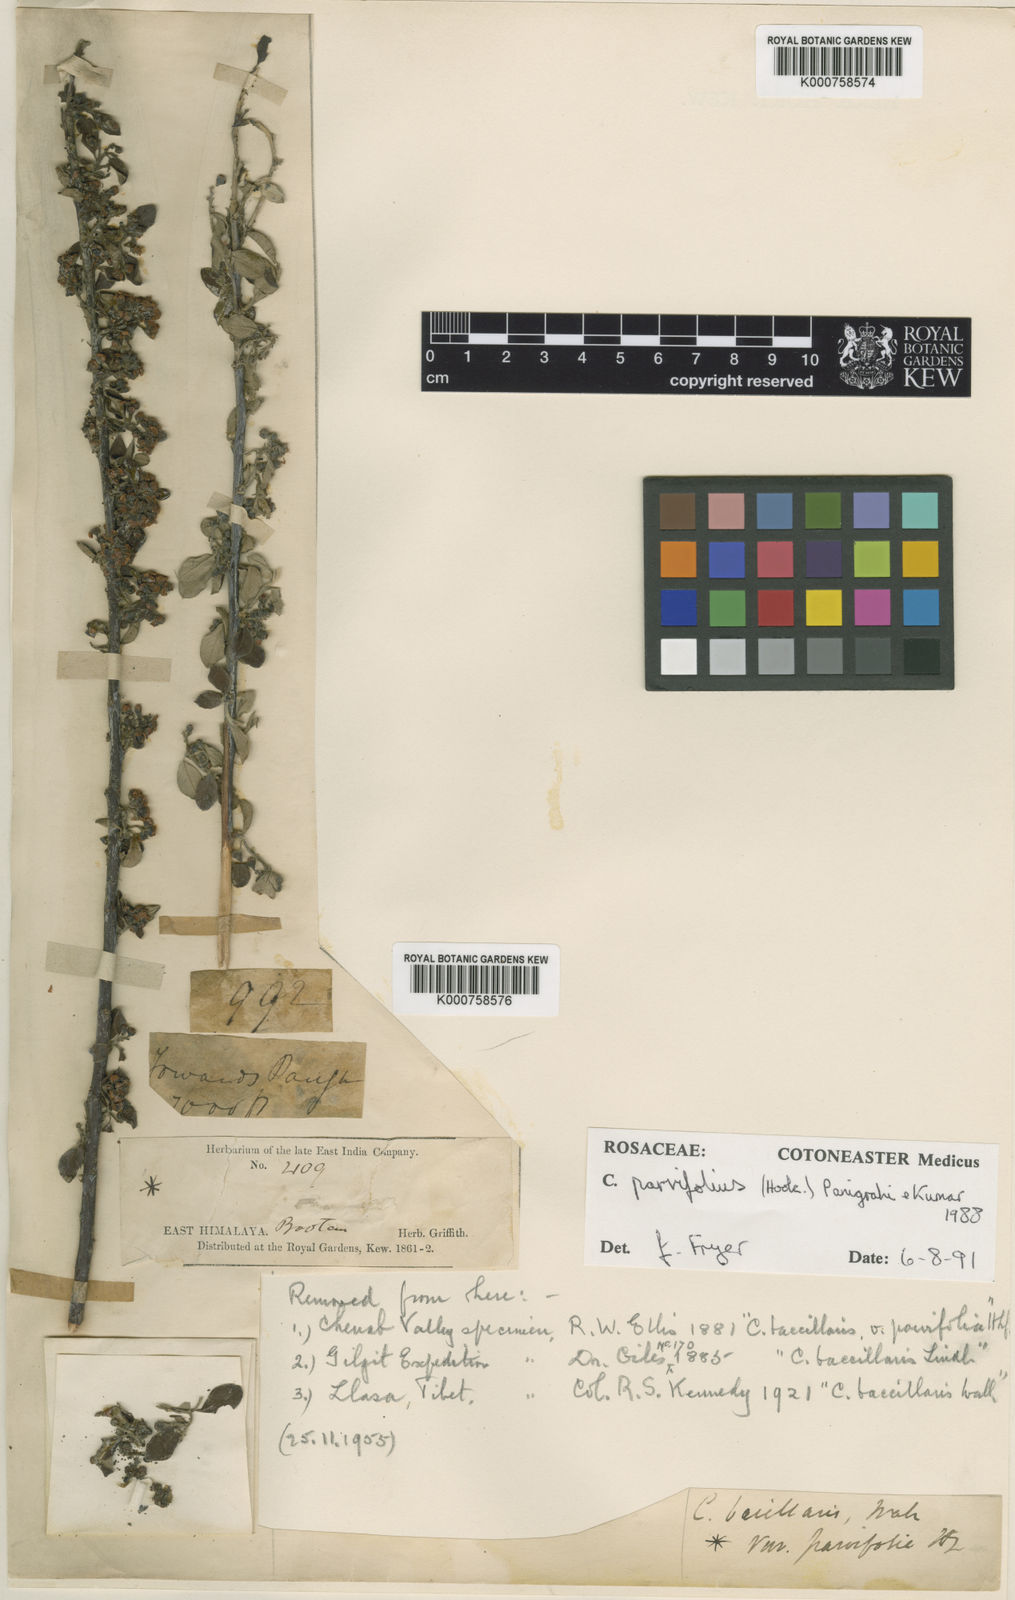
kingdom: Plantae
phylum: Tracheophyta
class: Magnoliopsida
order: Rosales
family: Rosaceae
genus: Cotoneaster
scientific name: Cotoneaster affinis
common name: Purpleberry cotoneaster
